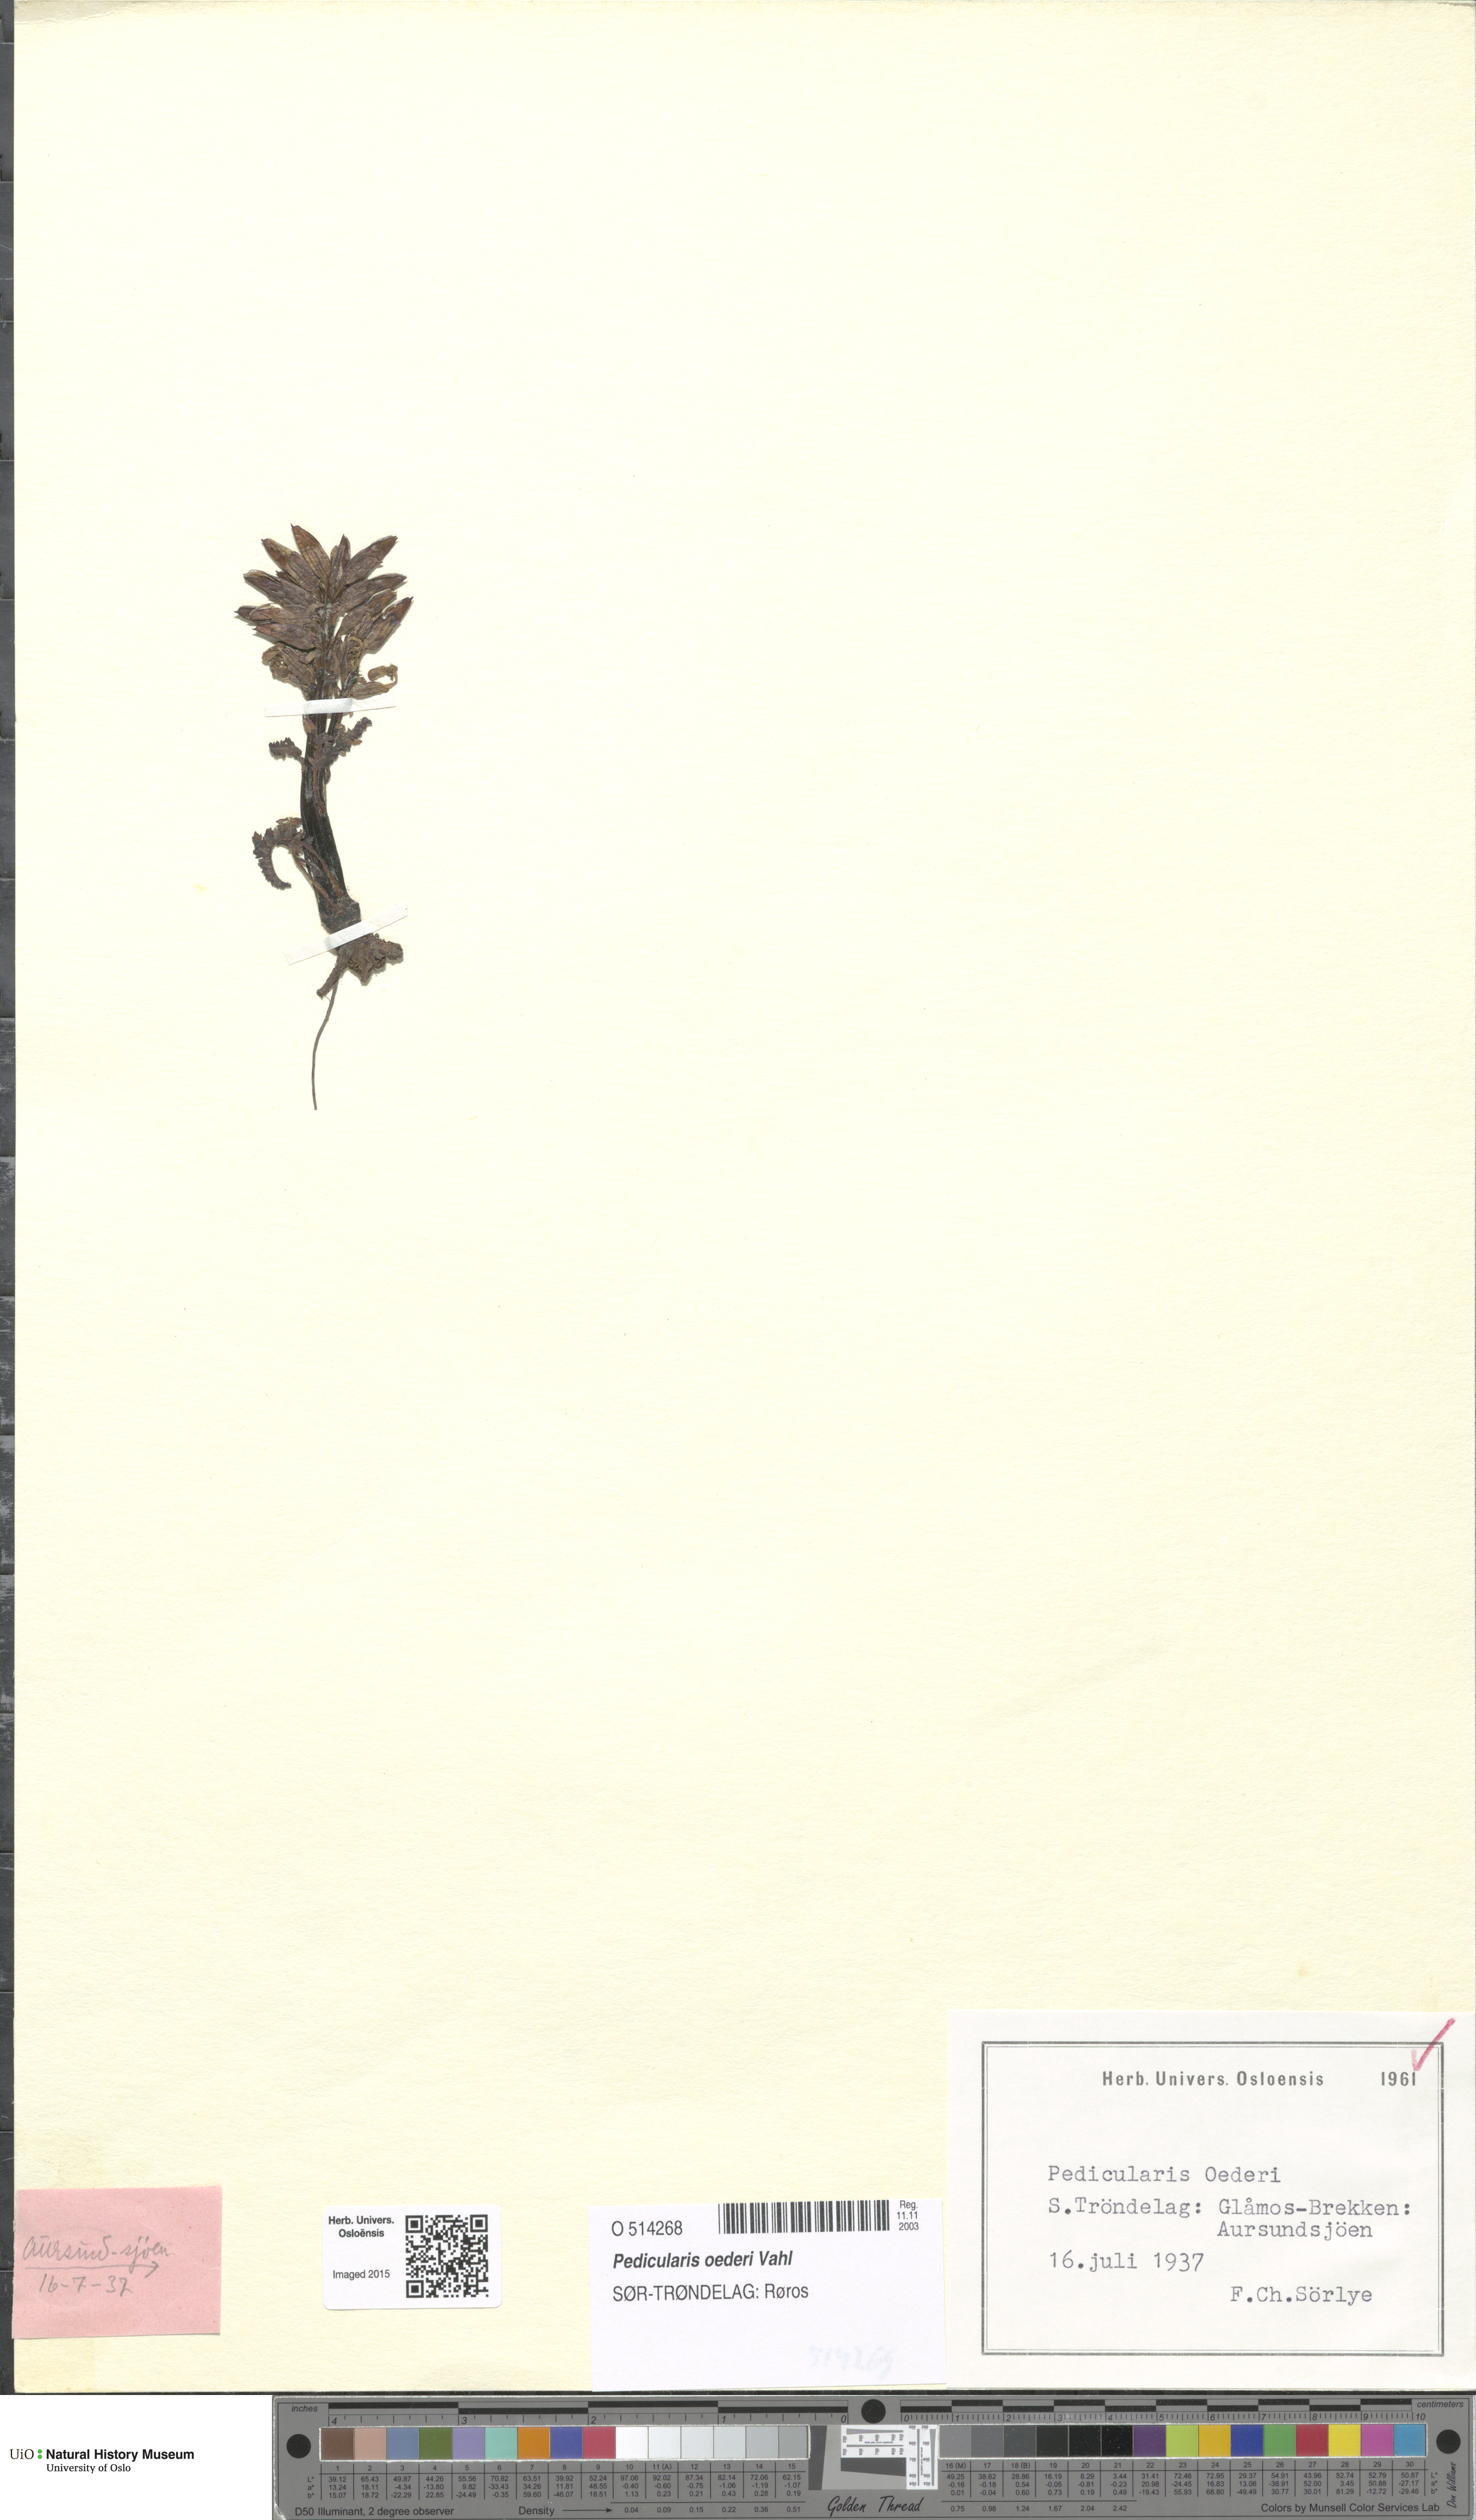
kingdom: Plantae
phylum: Tracheophyta
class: Magnoliopsida
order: Lamiales
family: Orobanchaceae
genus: Pedicularis
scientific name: Pedicularis oederi
